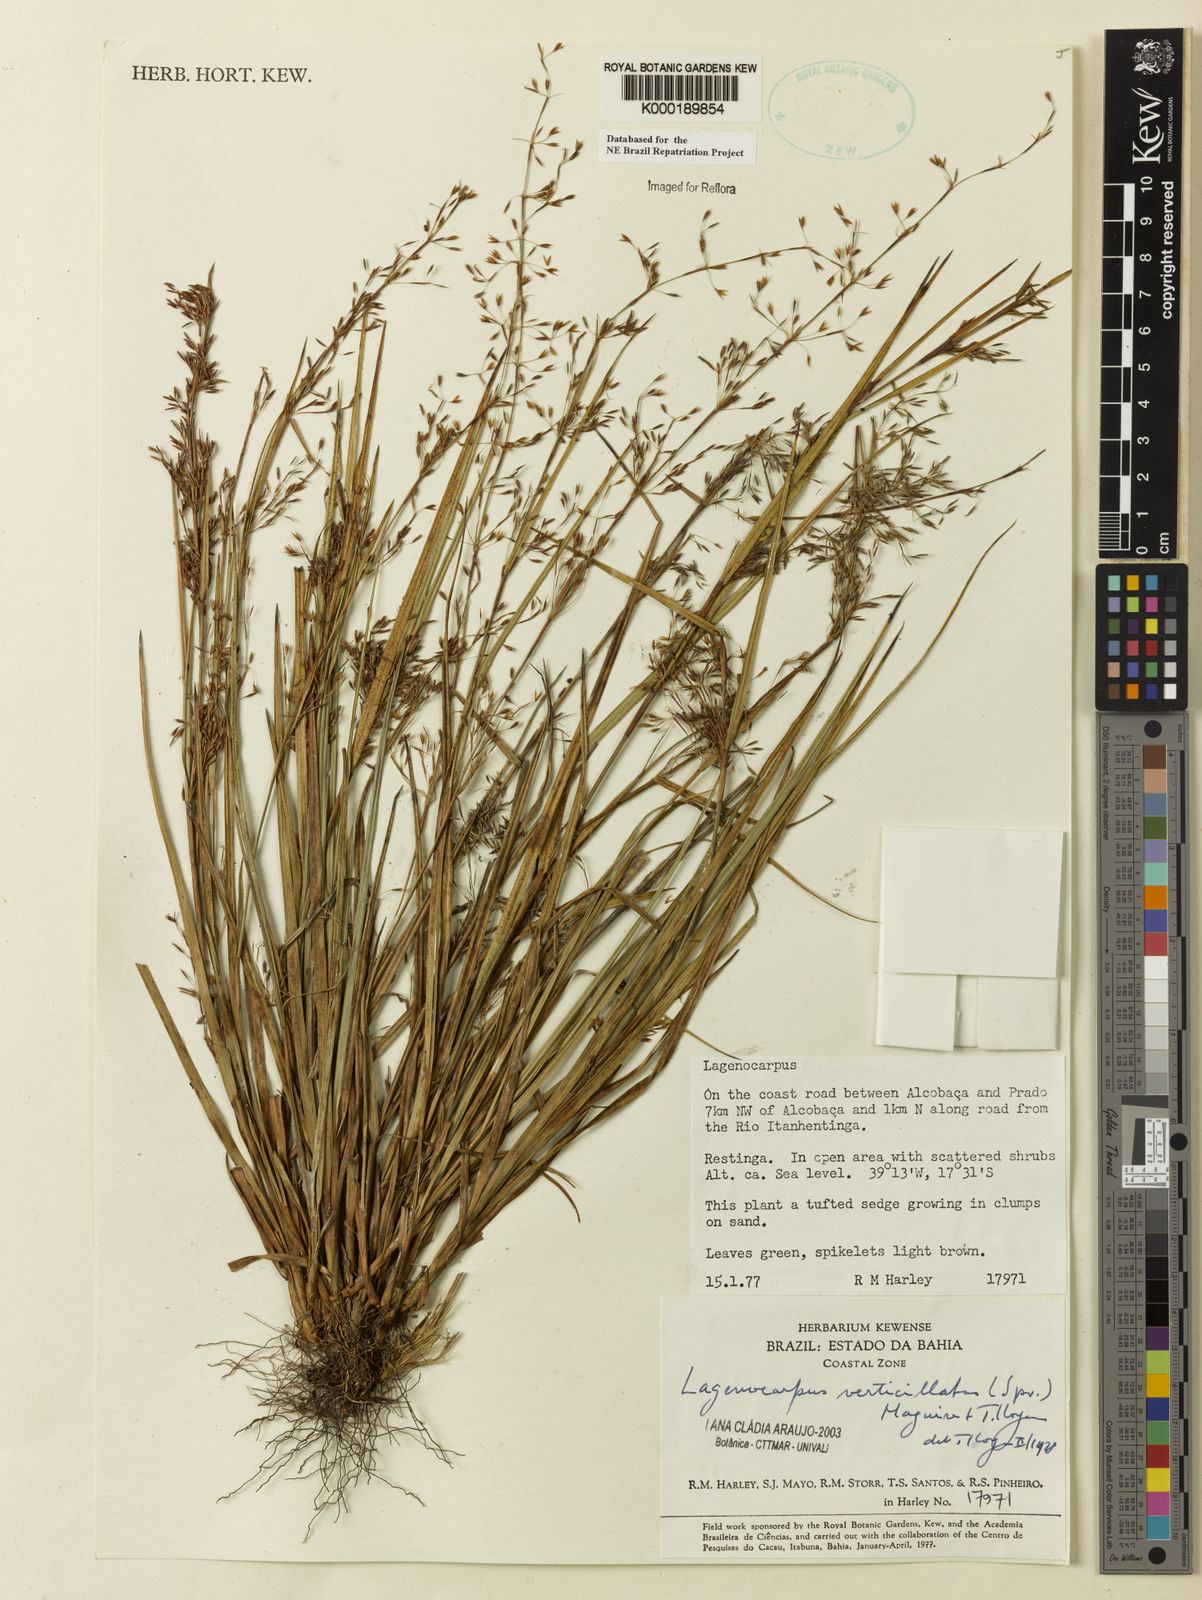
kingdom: Plantae
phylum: Tracheophyta
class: Liliopsida
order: Poales
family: Cyperaceae
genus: Cryptangium
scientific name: Cryptangium verticillatum
